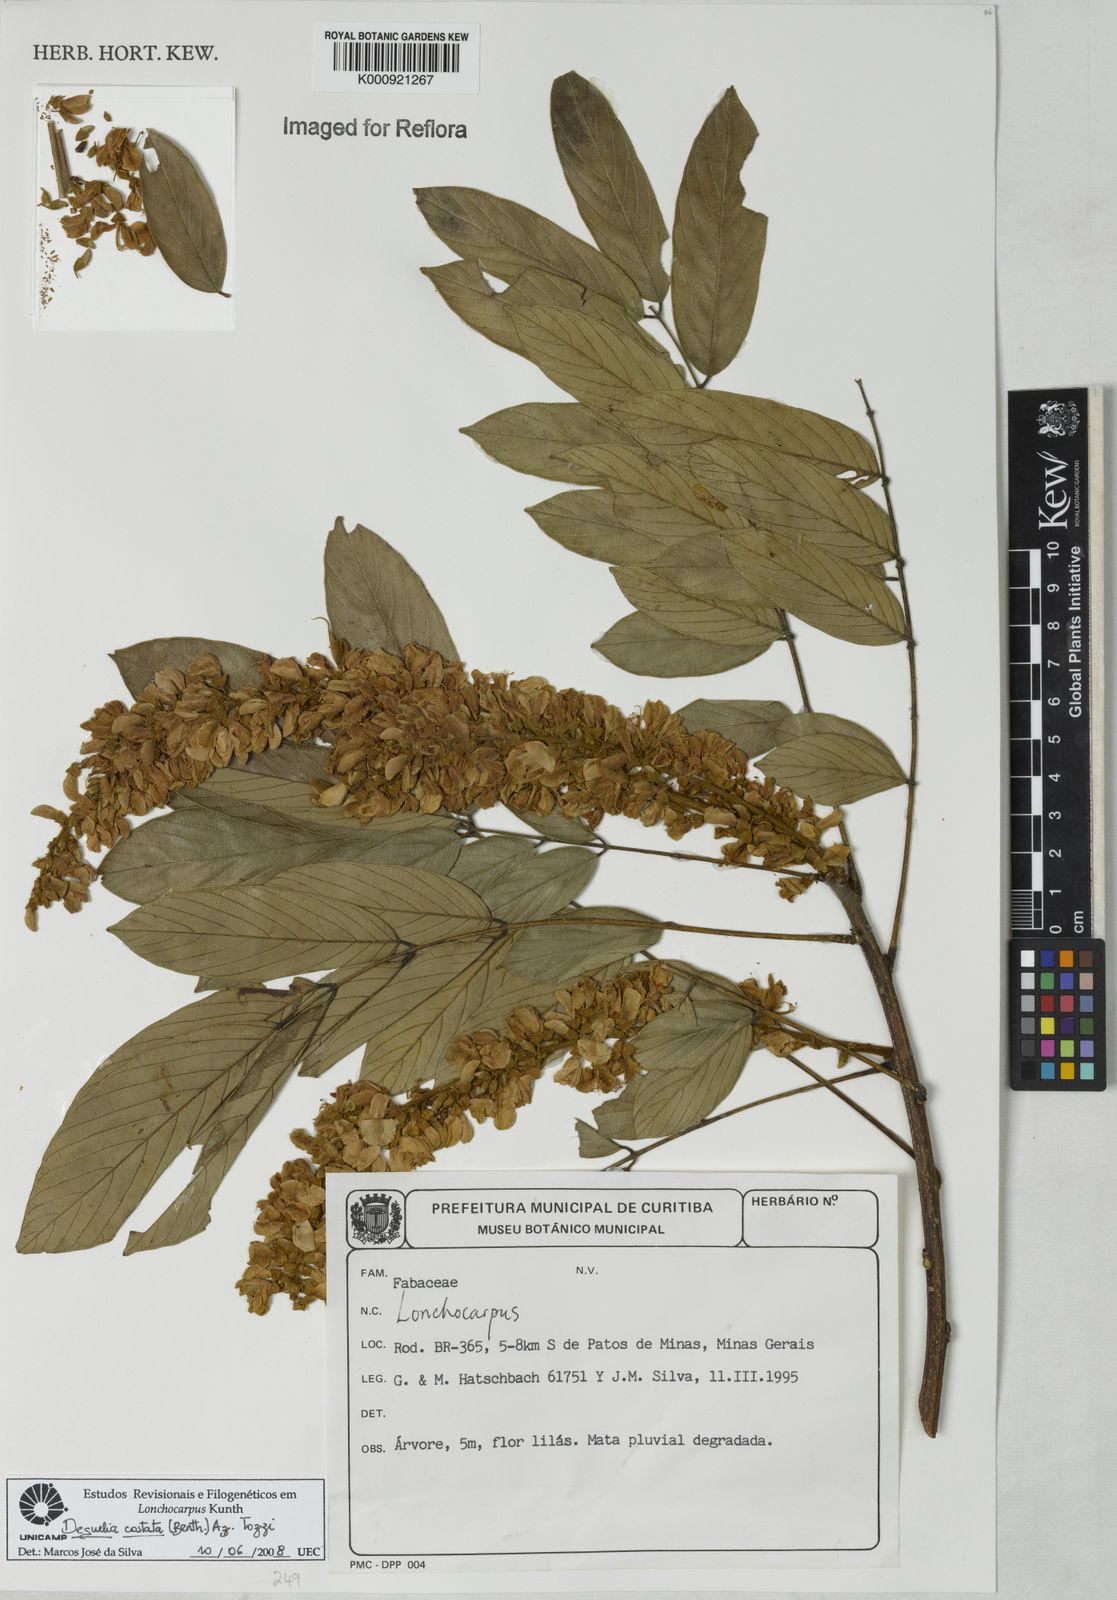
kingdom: Plantae
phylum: Tracheophyta
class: Magnoliopsida
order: Fabales
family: Fabaceae
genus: Deguelia
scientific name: Deguelia costata
